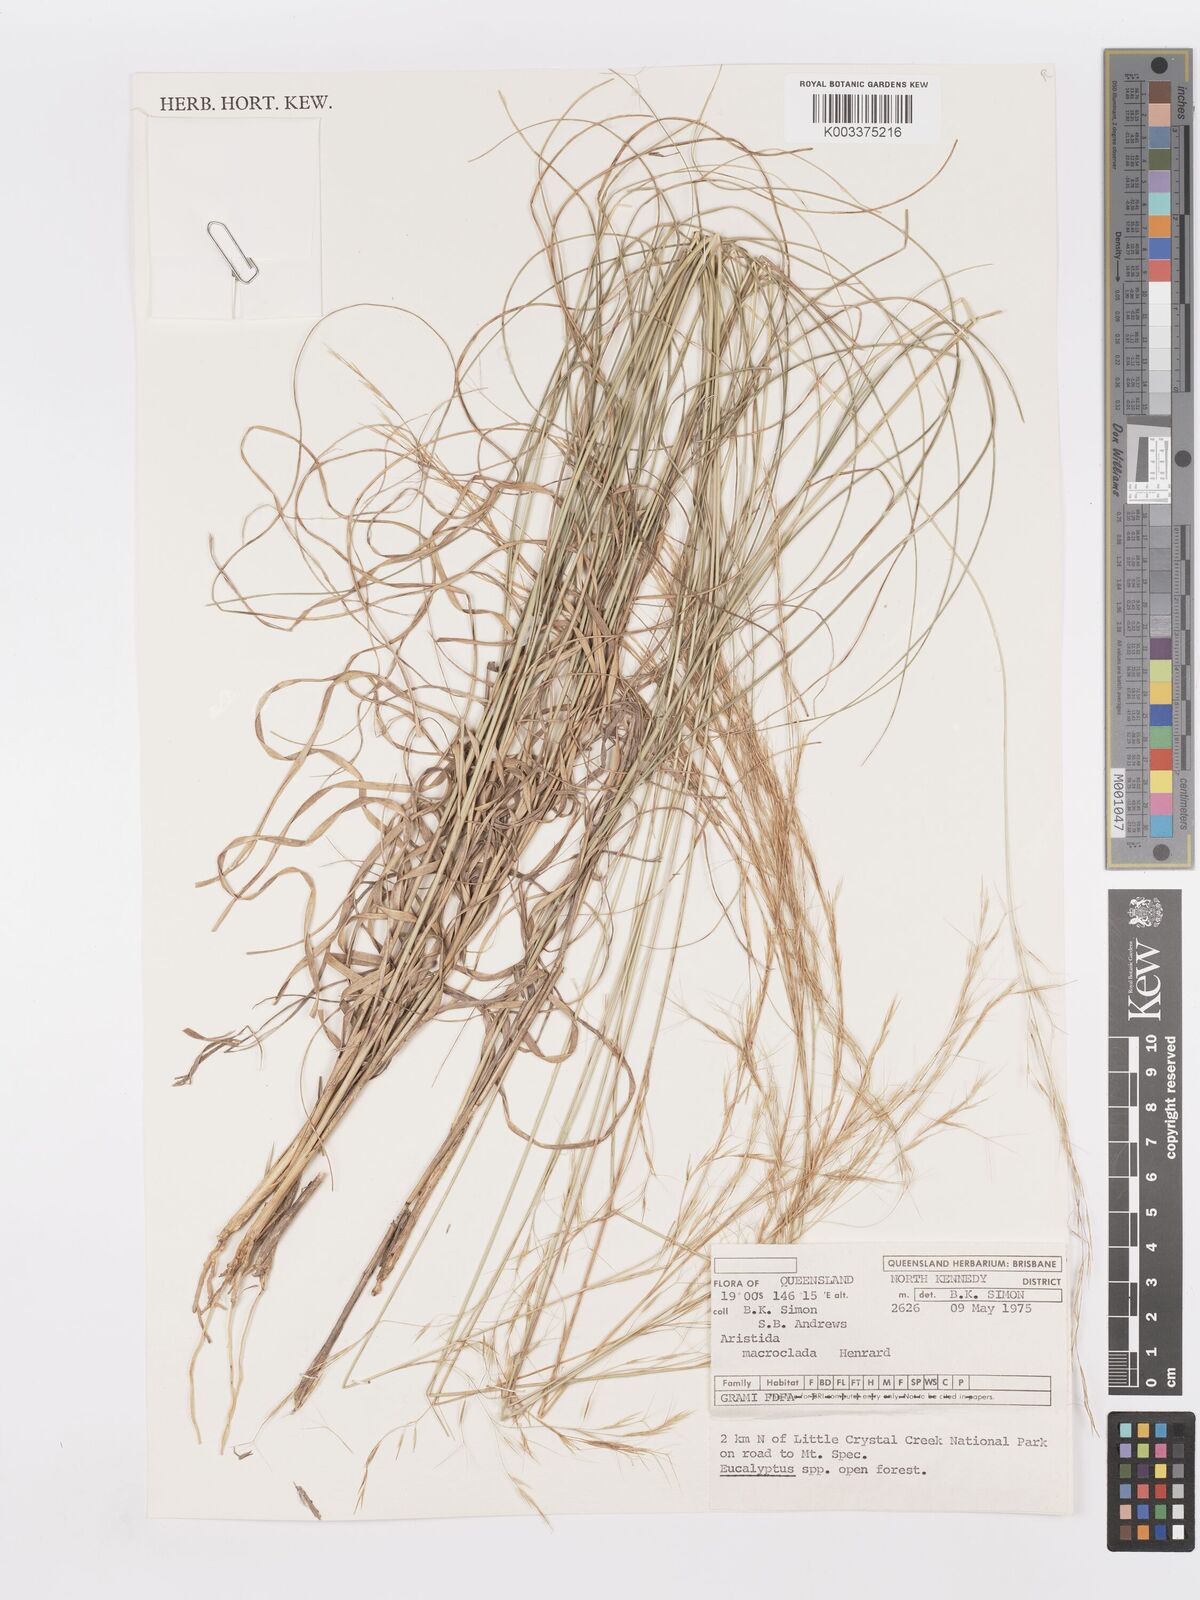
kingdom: Plantae
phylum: Tracheophyta
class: Liliopsida
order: Poales
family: Poaceae
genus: Aristida
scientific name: Aristida macroclada
